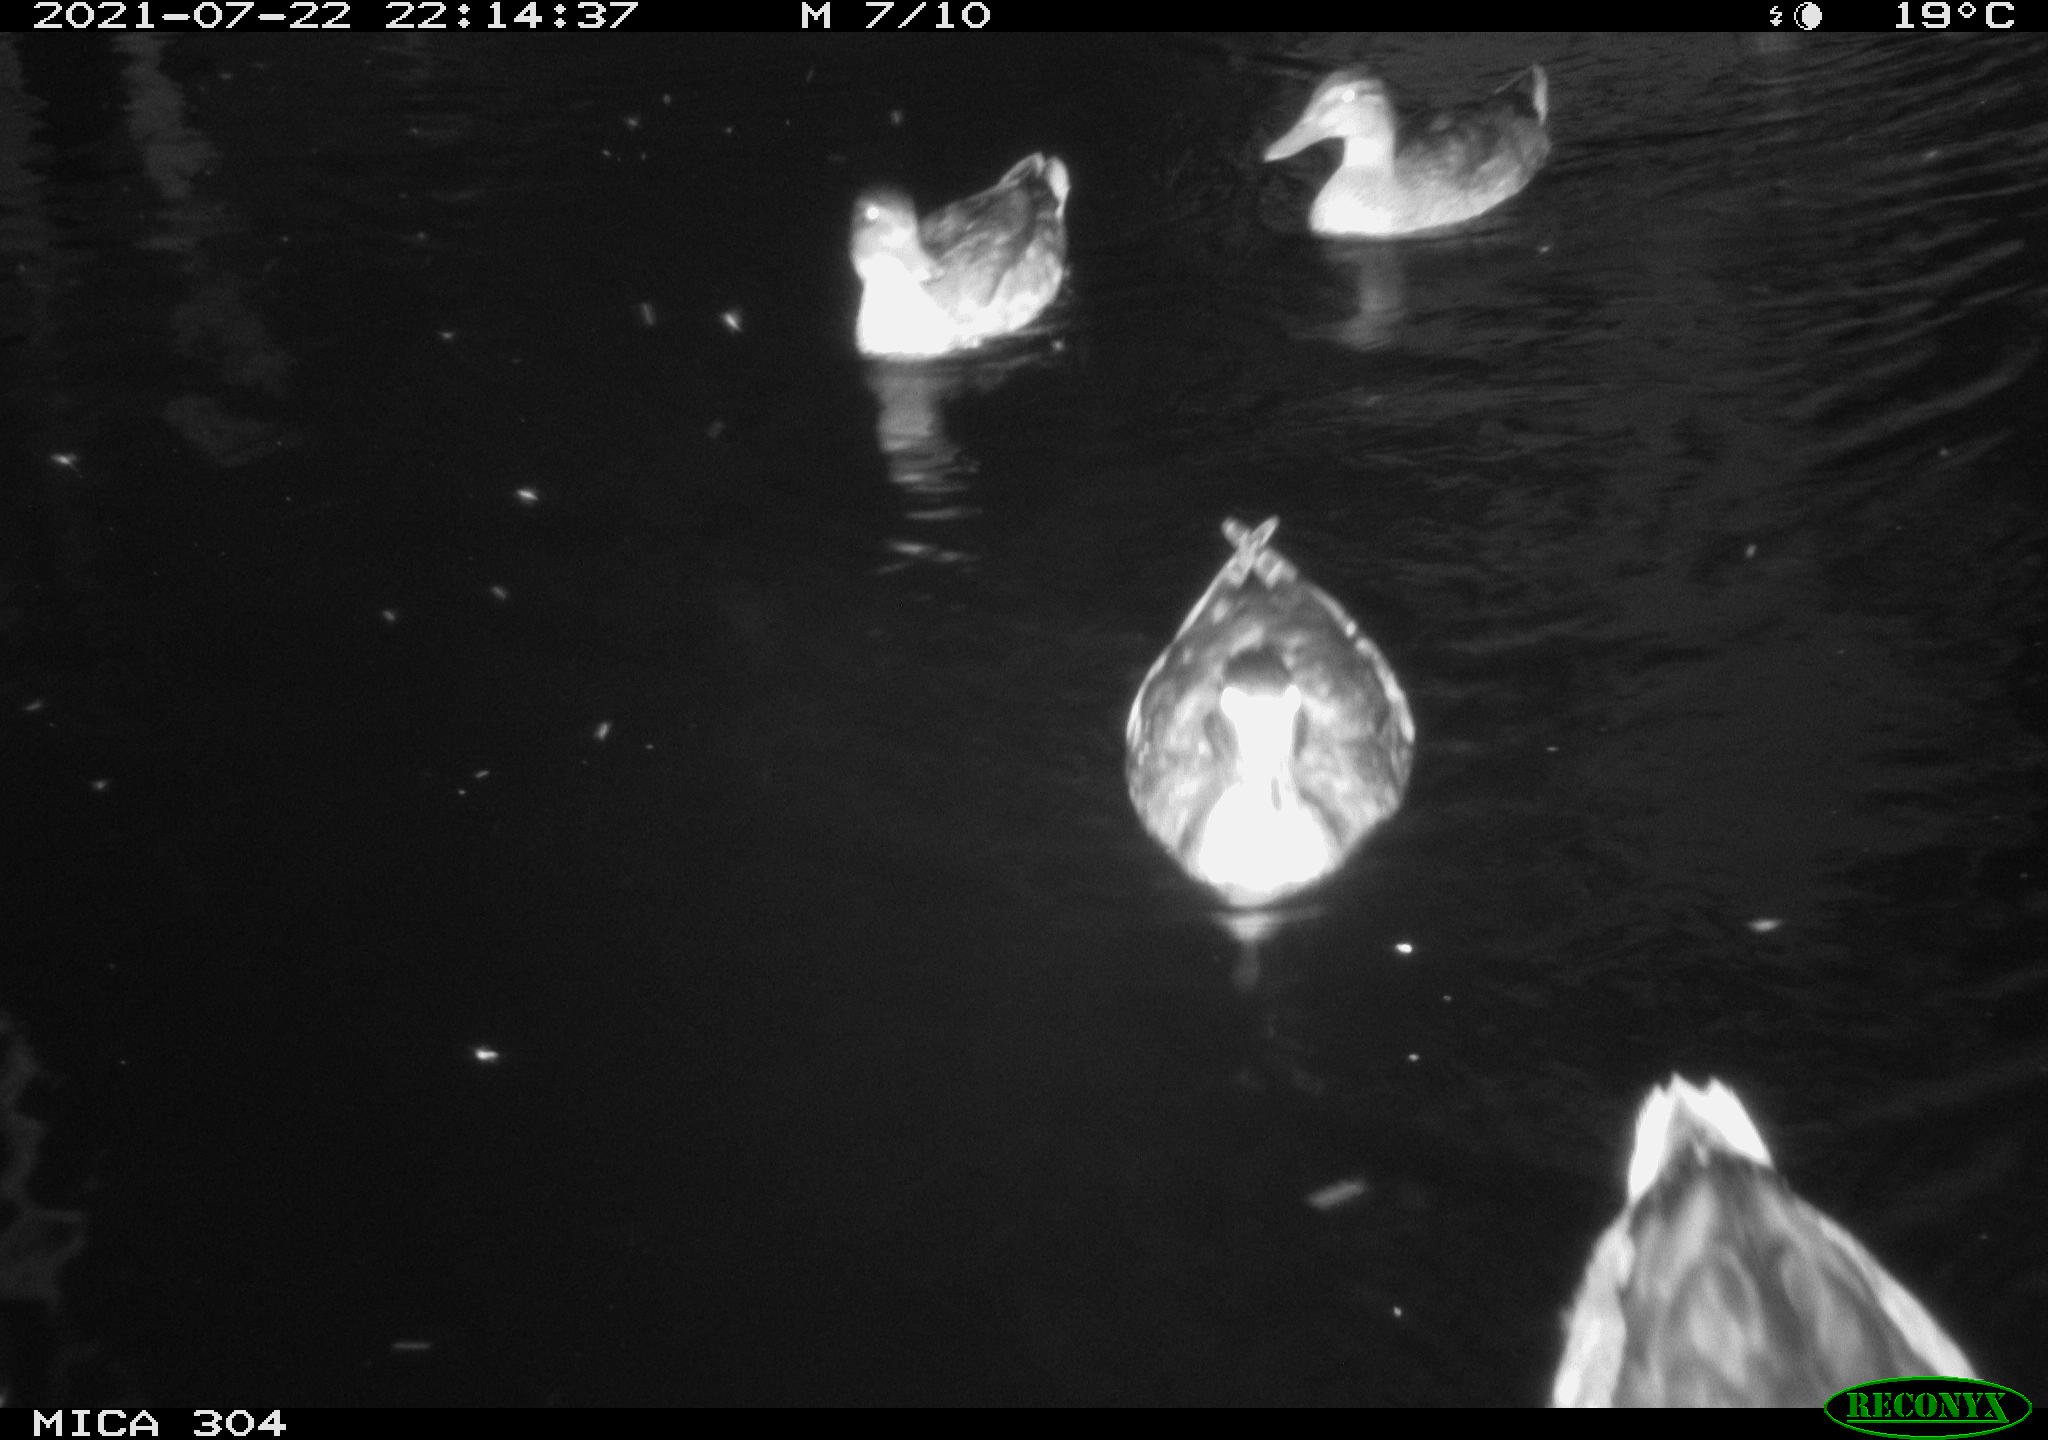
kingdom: Animalia
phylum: Chordata
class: Aves
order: Anseriformes
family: Anatidae
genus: Anas
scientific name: Anas platyrhynchos
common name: Mallard
